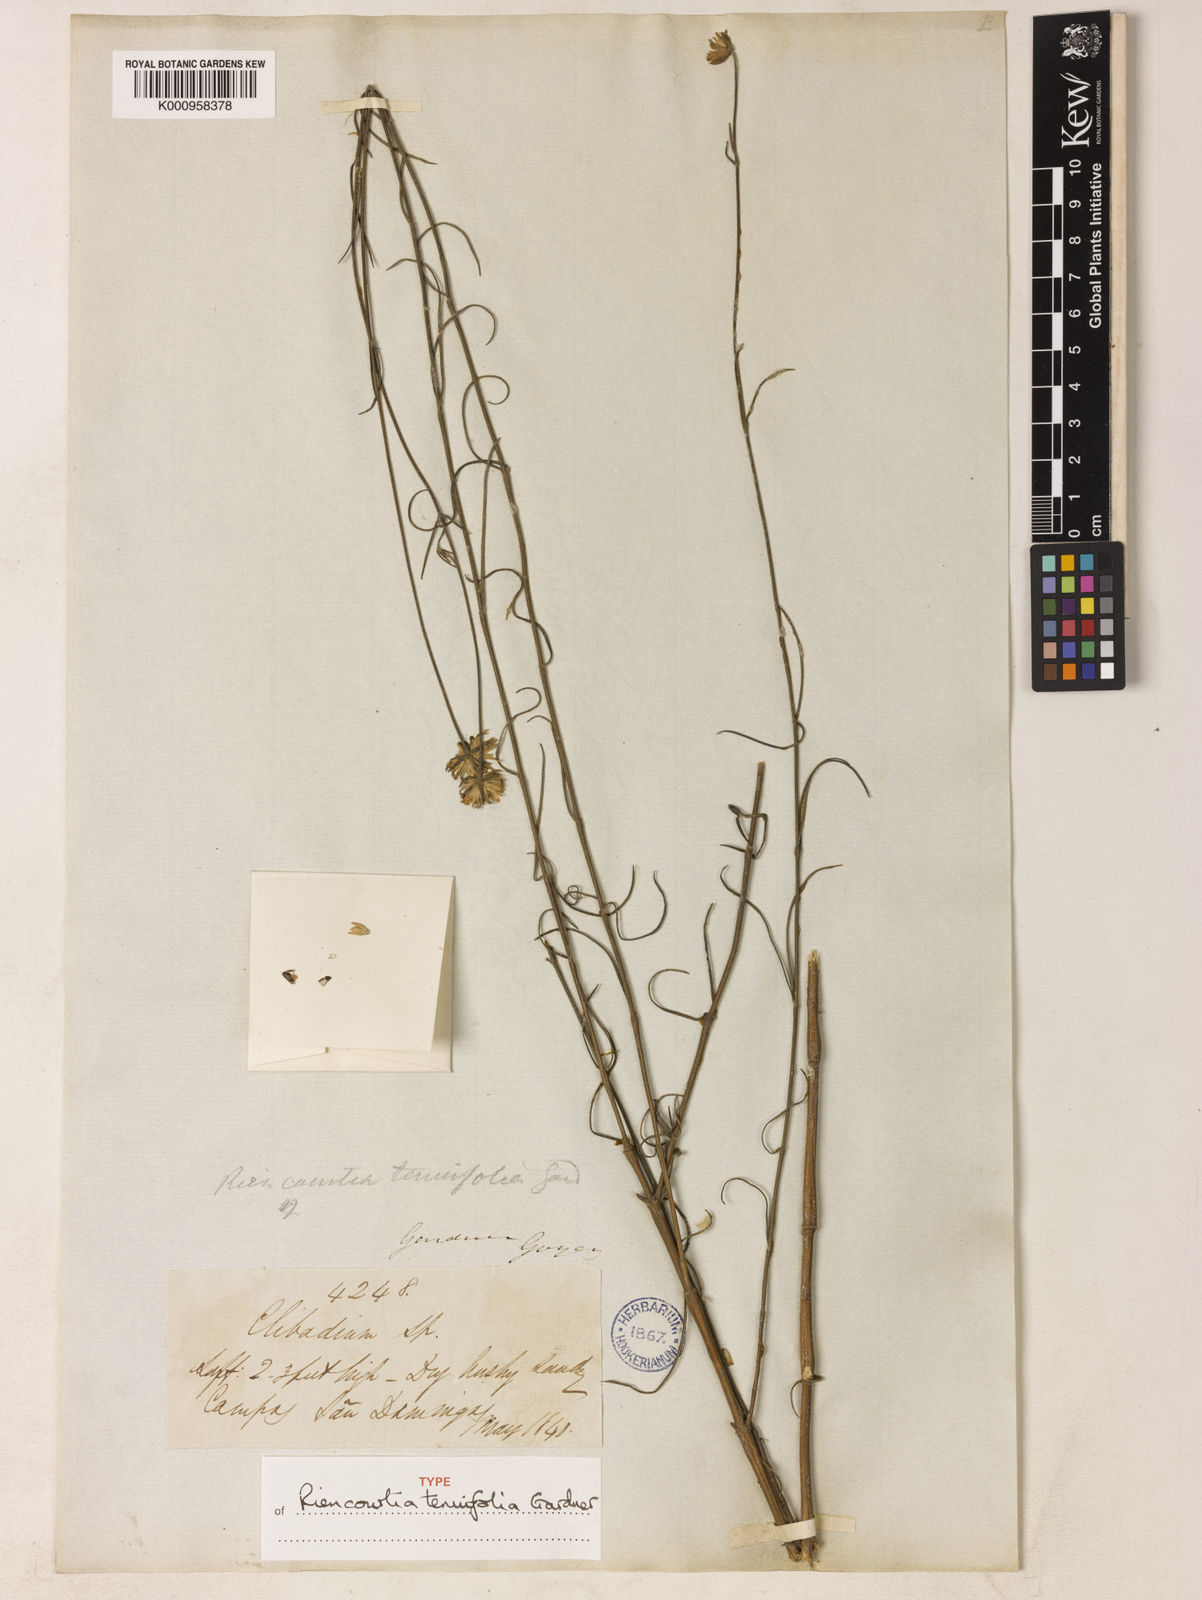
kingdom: Plantae
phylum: Tracheophyta
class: Magnoliopsida
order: Asterales
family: Asteraceae
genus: Riencourtia
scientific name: Riencourtia tenuifolia
